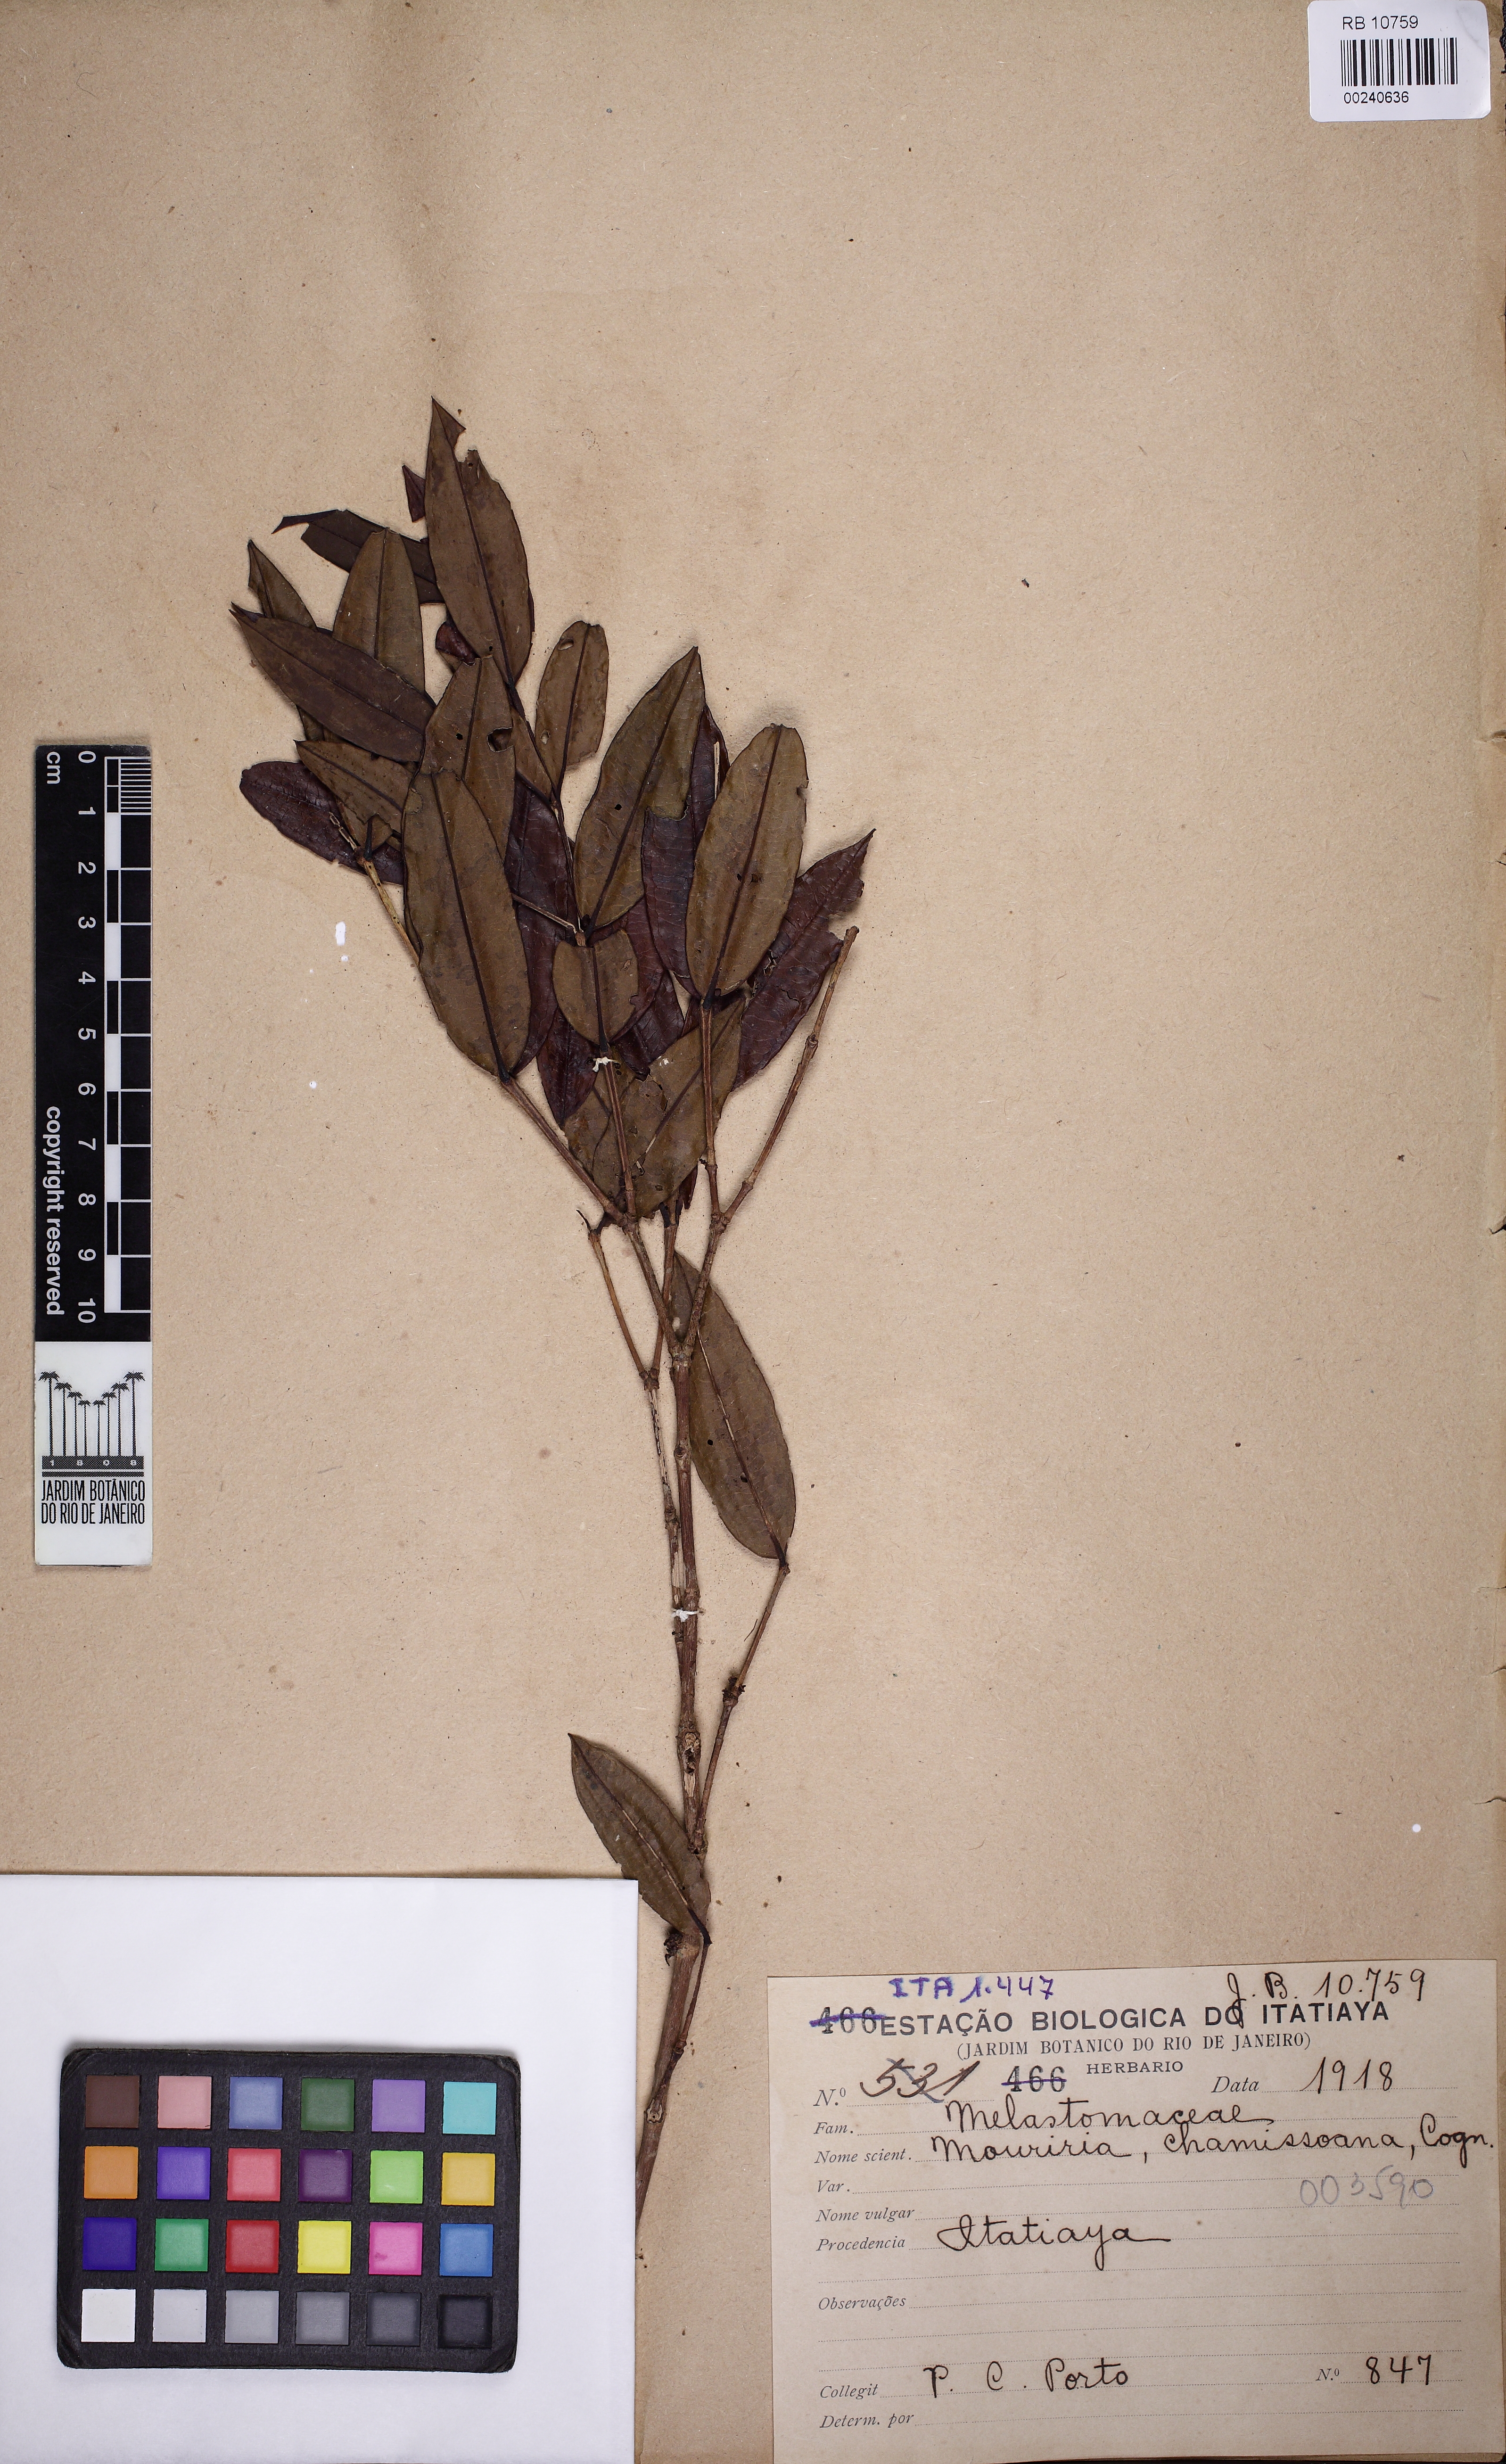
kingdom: Plantae
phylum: Tracheophyta
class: Magnoliopsida
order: Myrtales
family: Melastomataceae
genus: Mouriri
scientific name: Mouriri chamissoana
